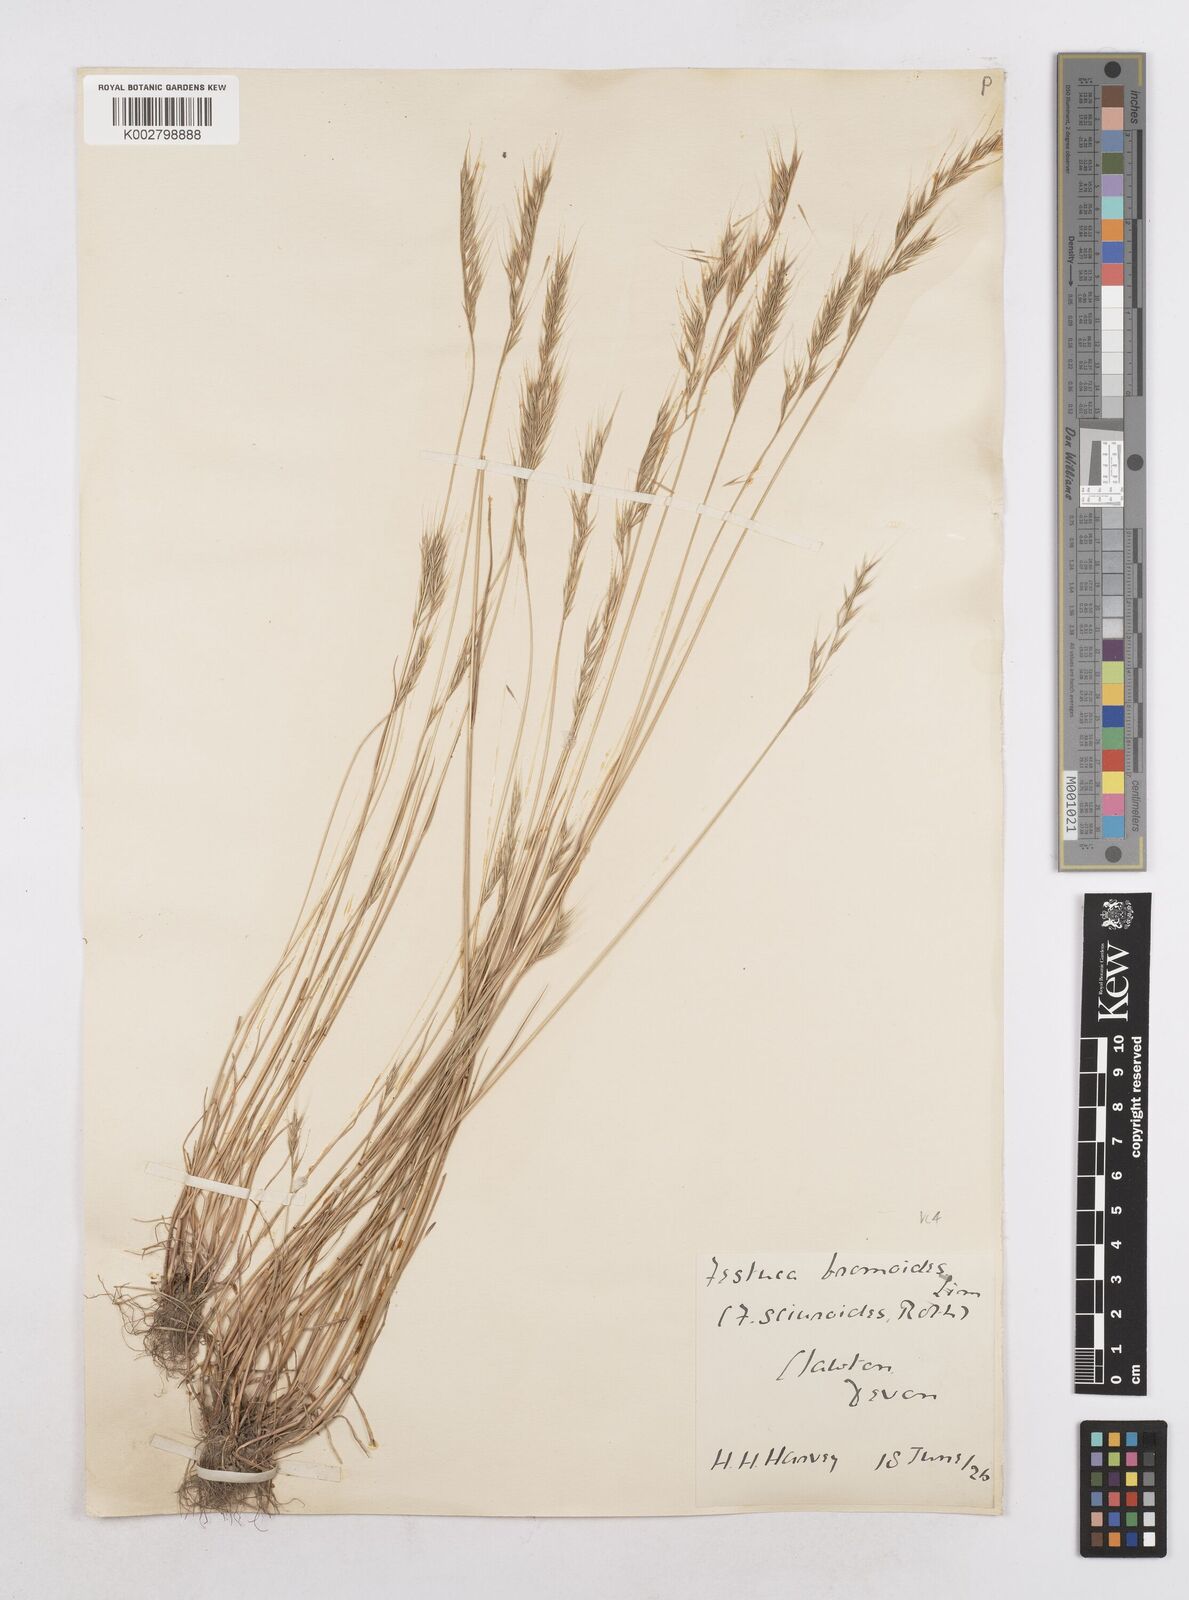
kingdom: Plantae
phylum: Tracheophyta
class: Liliopsida
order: Poales
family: Poaceae
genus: Festuca
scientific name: Festuca bromoides
